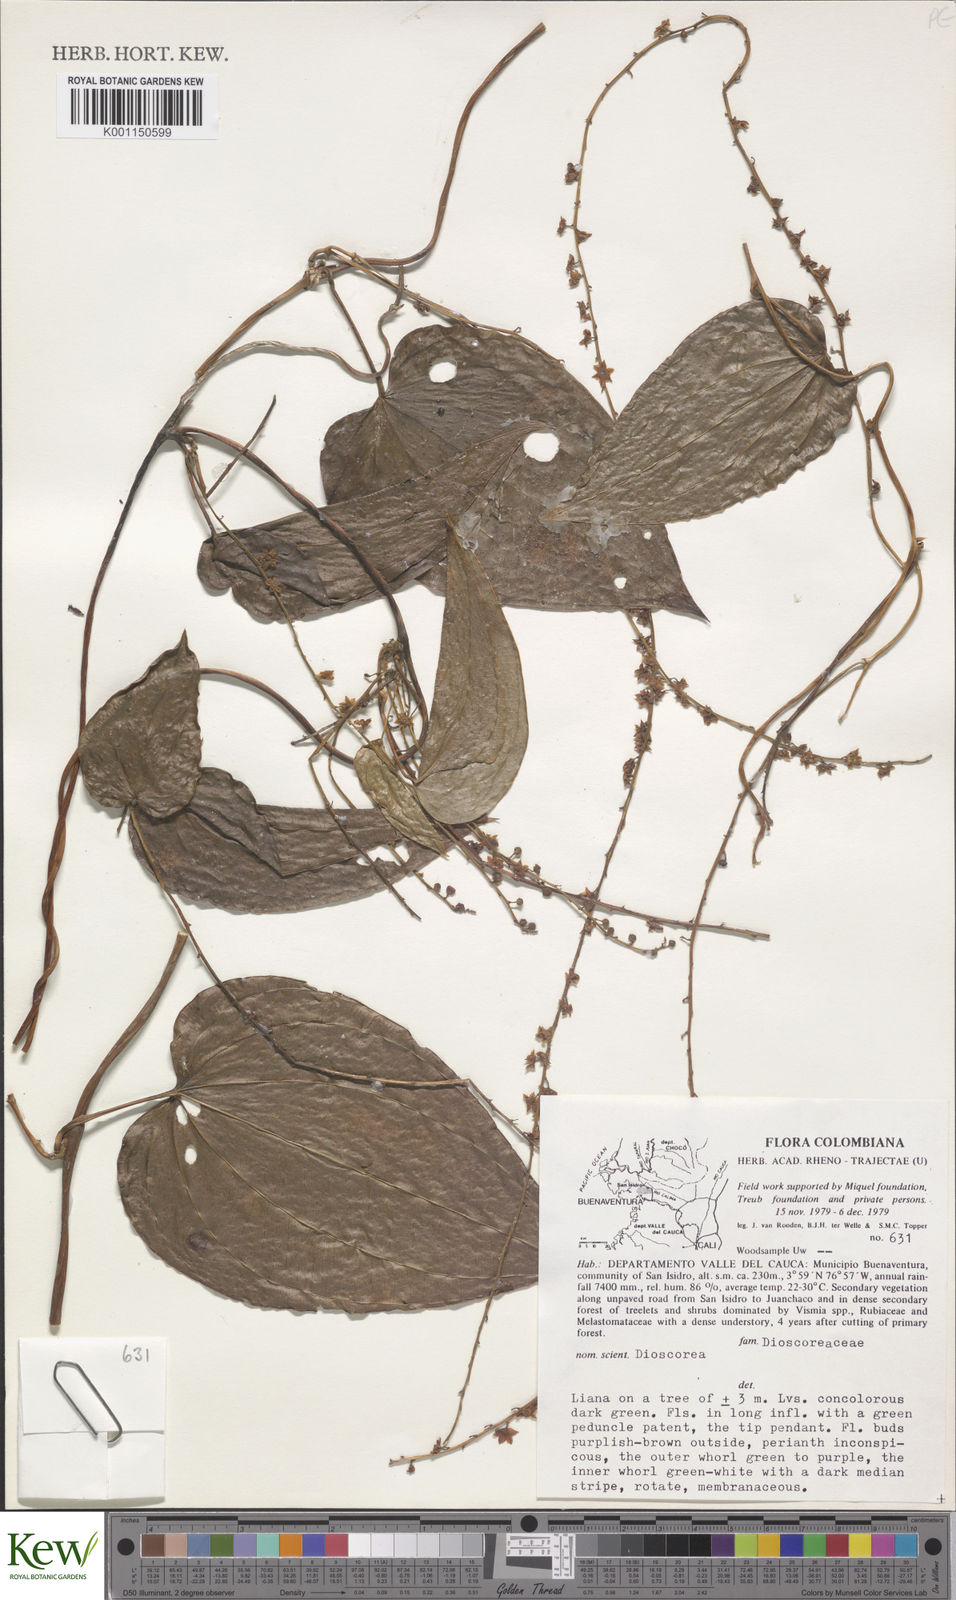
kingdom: Plantae
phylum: Tracheophyta
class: Liliopsida
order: Dioscoreales
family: Dioscoreaceae
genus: Dioscorea
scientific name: Dioscorea
